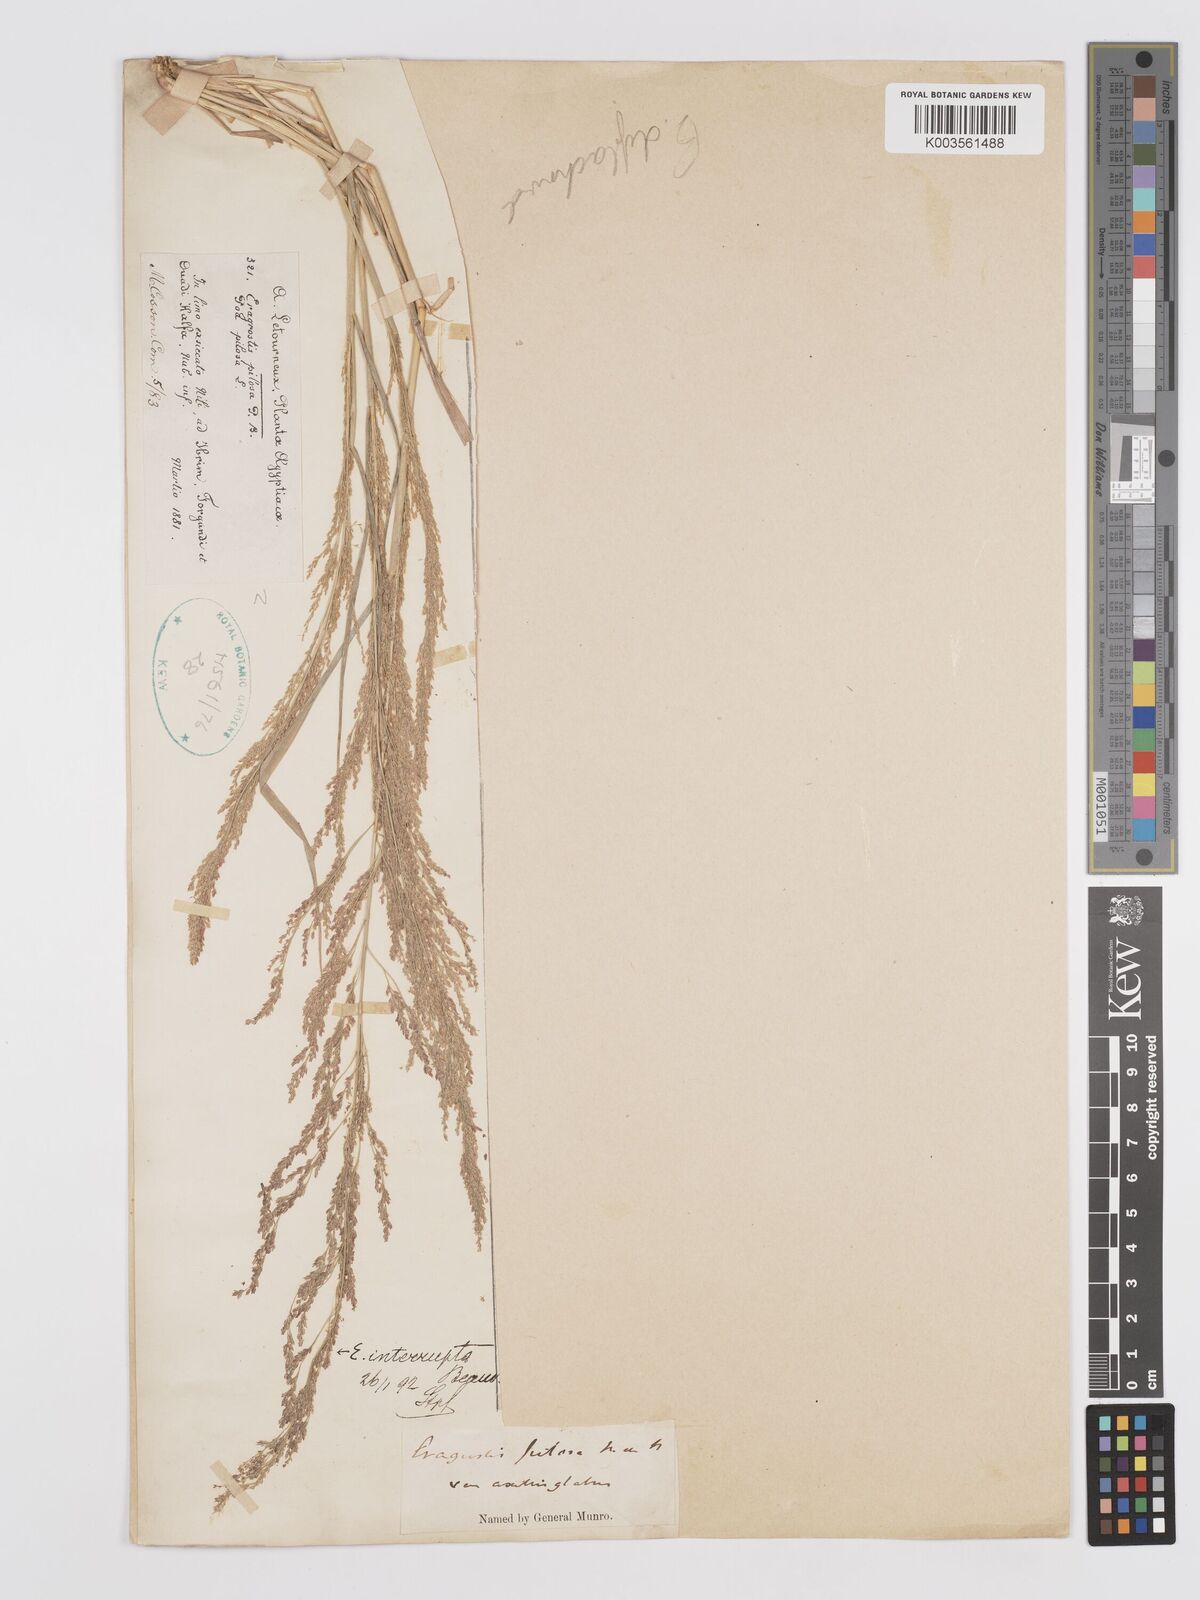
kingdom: Plantae
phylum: Tracheophyta
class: Liliopsida
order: Poales
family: Poaceae
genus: Eragrostis
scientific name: Eragrostis japonica
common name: Pond lovegrass
